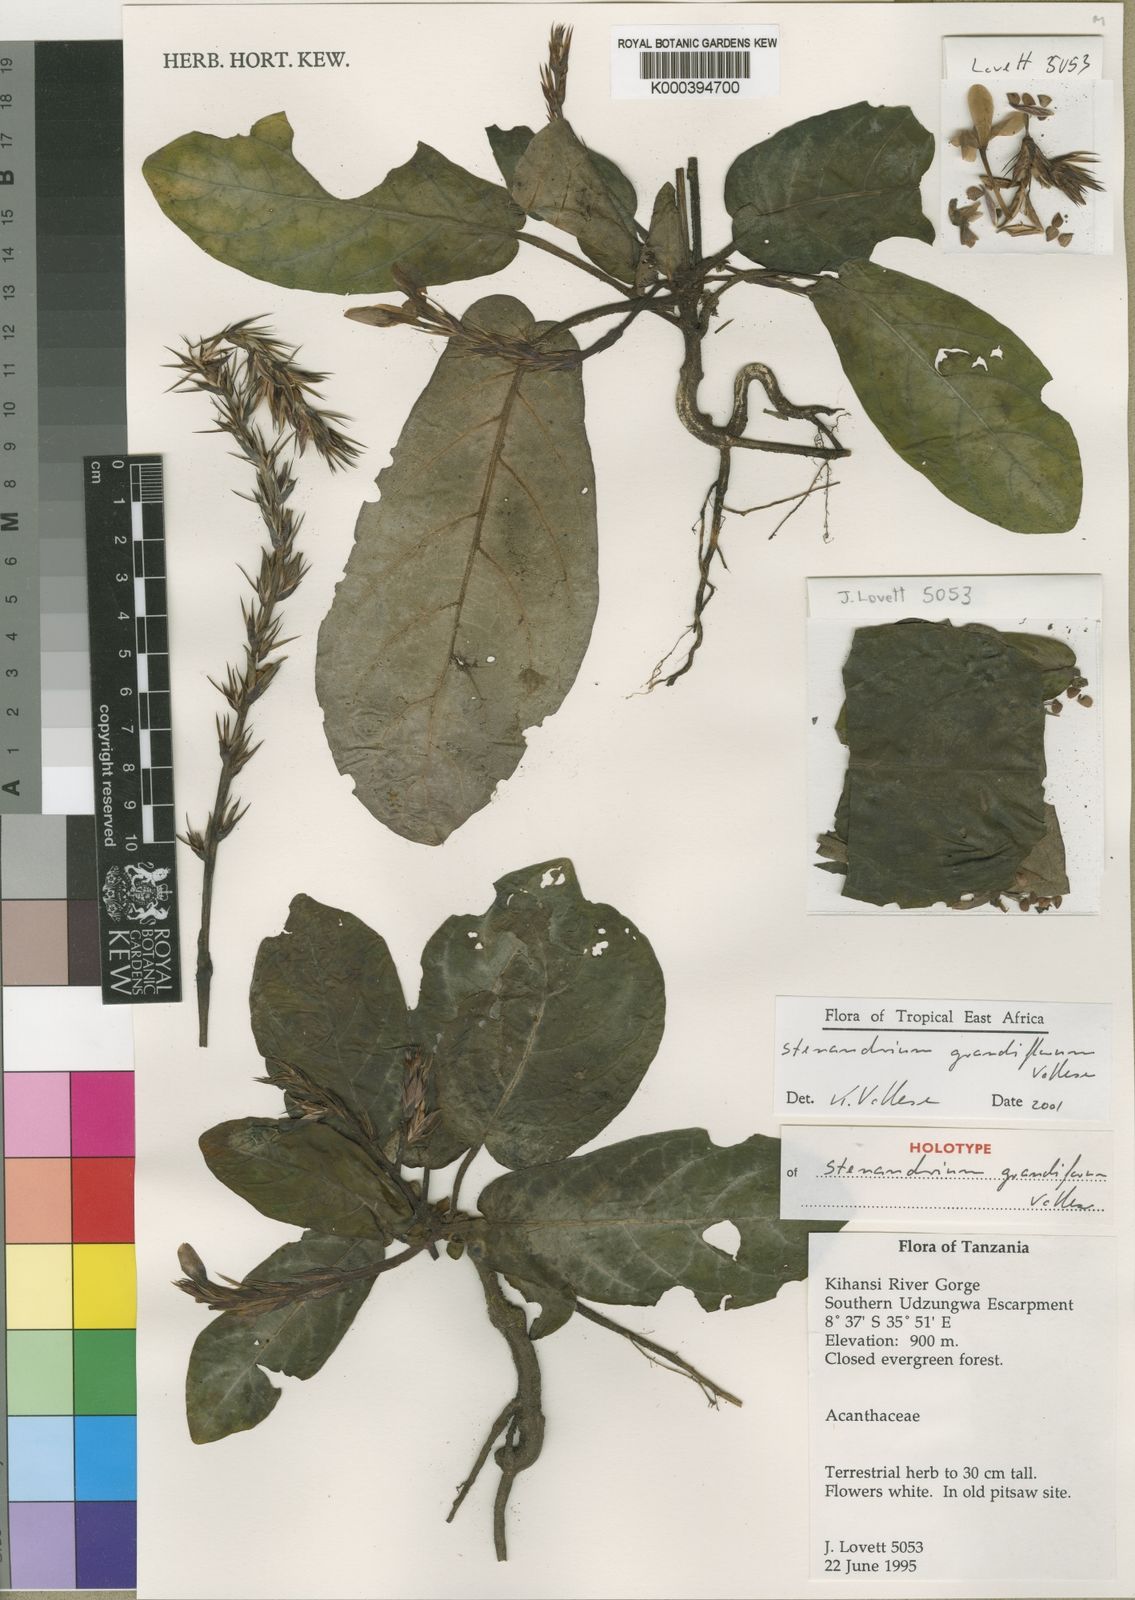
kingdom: Plantae
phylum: Tracheophyta
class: Magnoliopsida
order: Lamiales
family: Acanthaceae
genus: Stenandriopsis
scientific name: Stenandriopsis grandiflora
